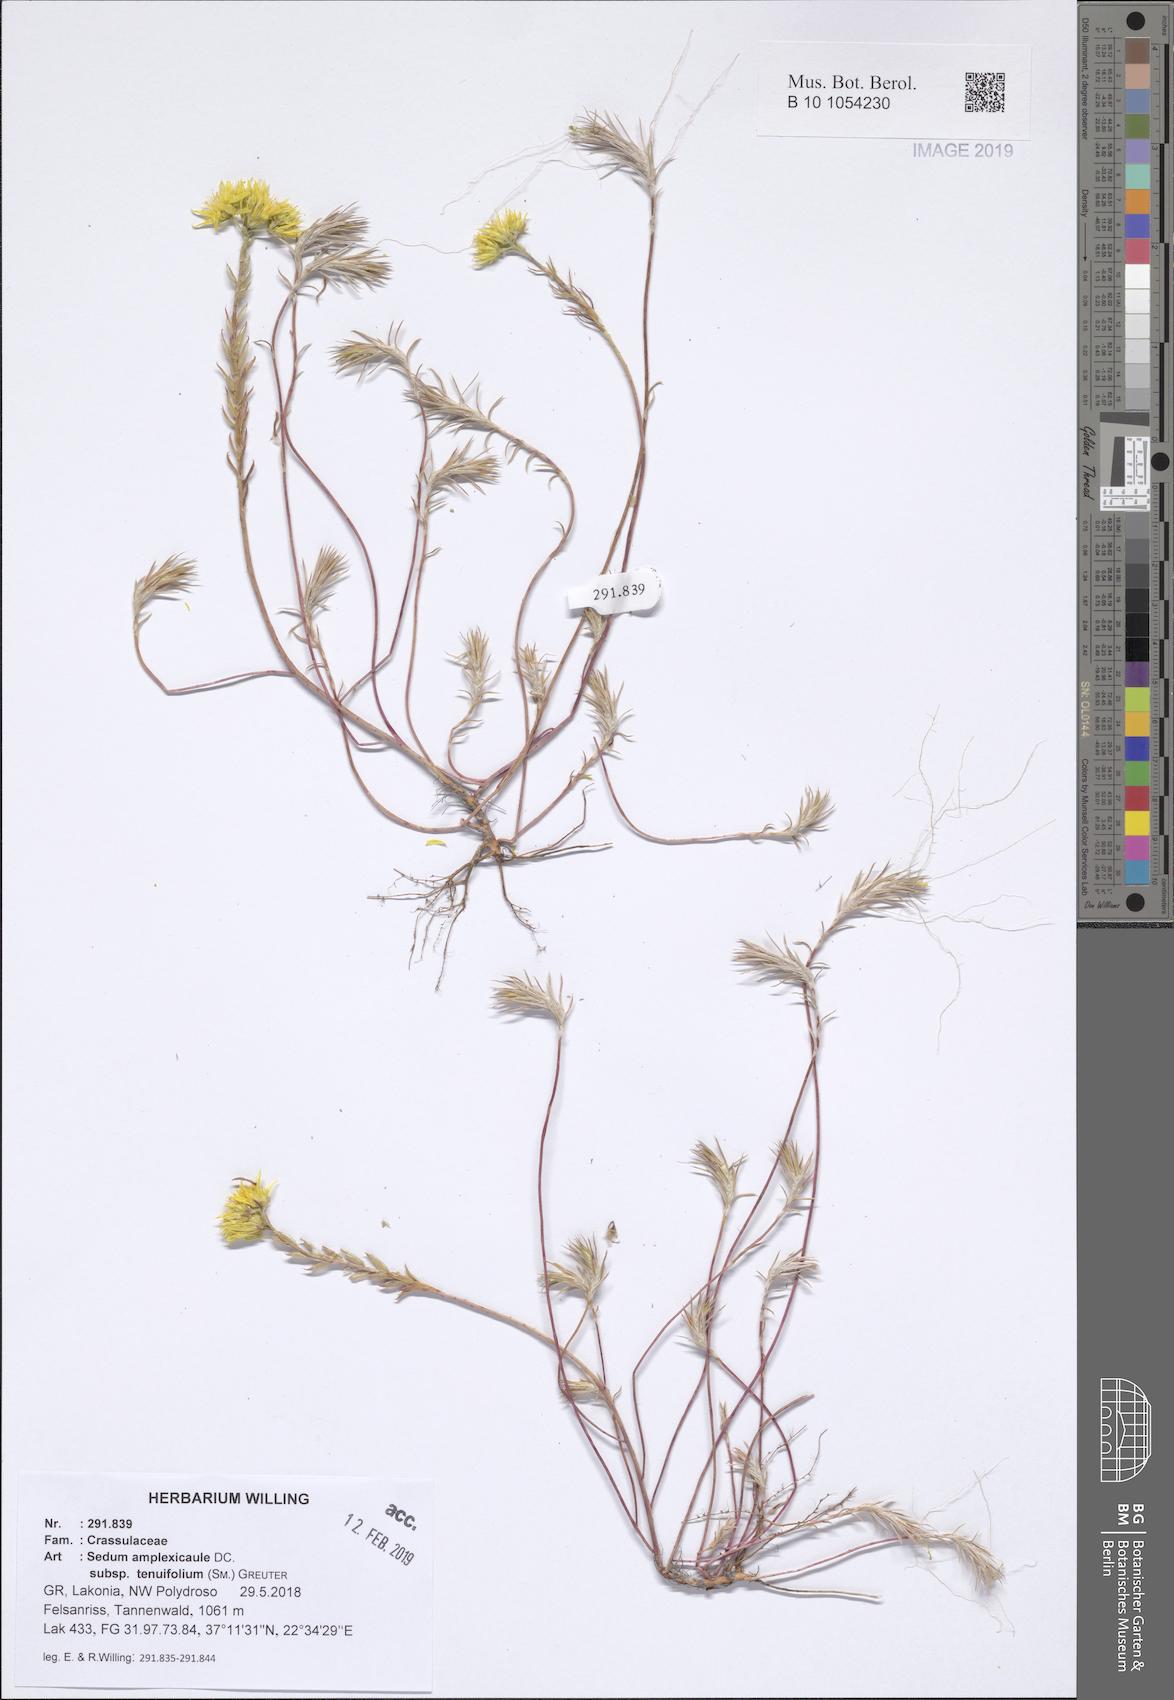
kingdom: Plantae
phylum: Tracheophyta
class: Magnoliopsida
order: Saxifragales
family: Crassulaceae
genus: Petrosedum
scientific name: Petrosedum tenuifolium
